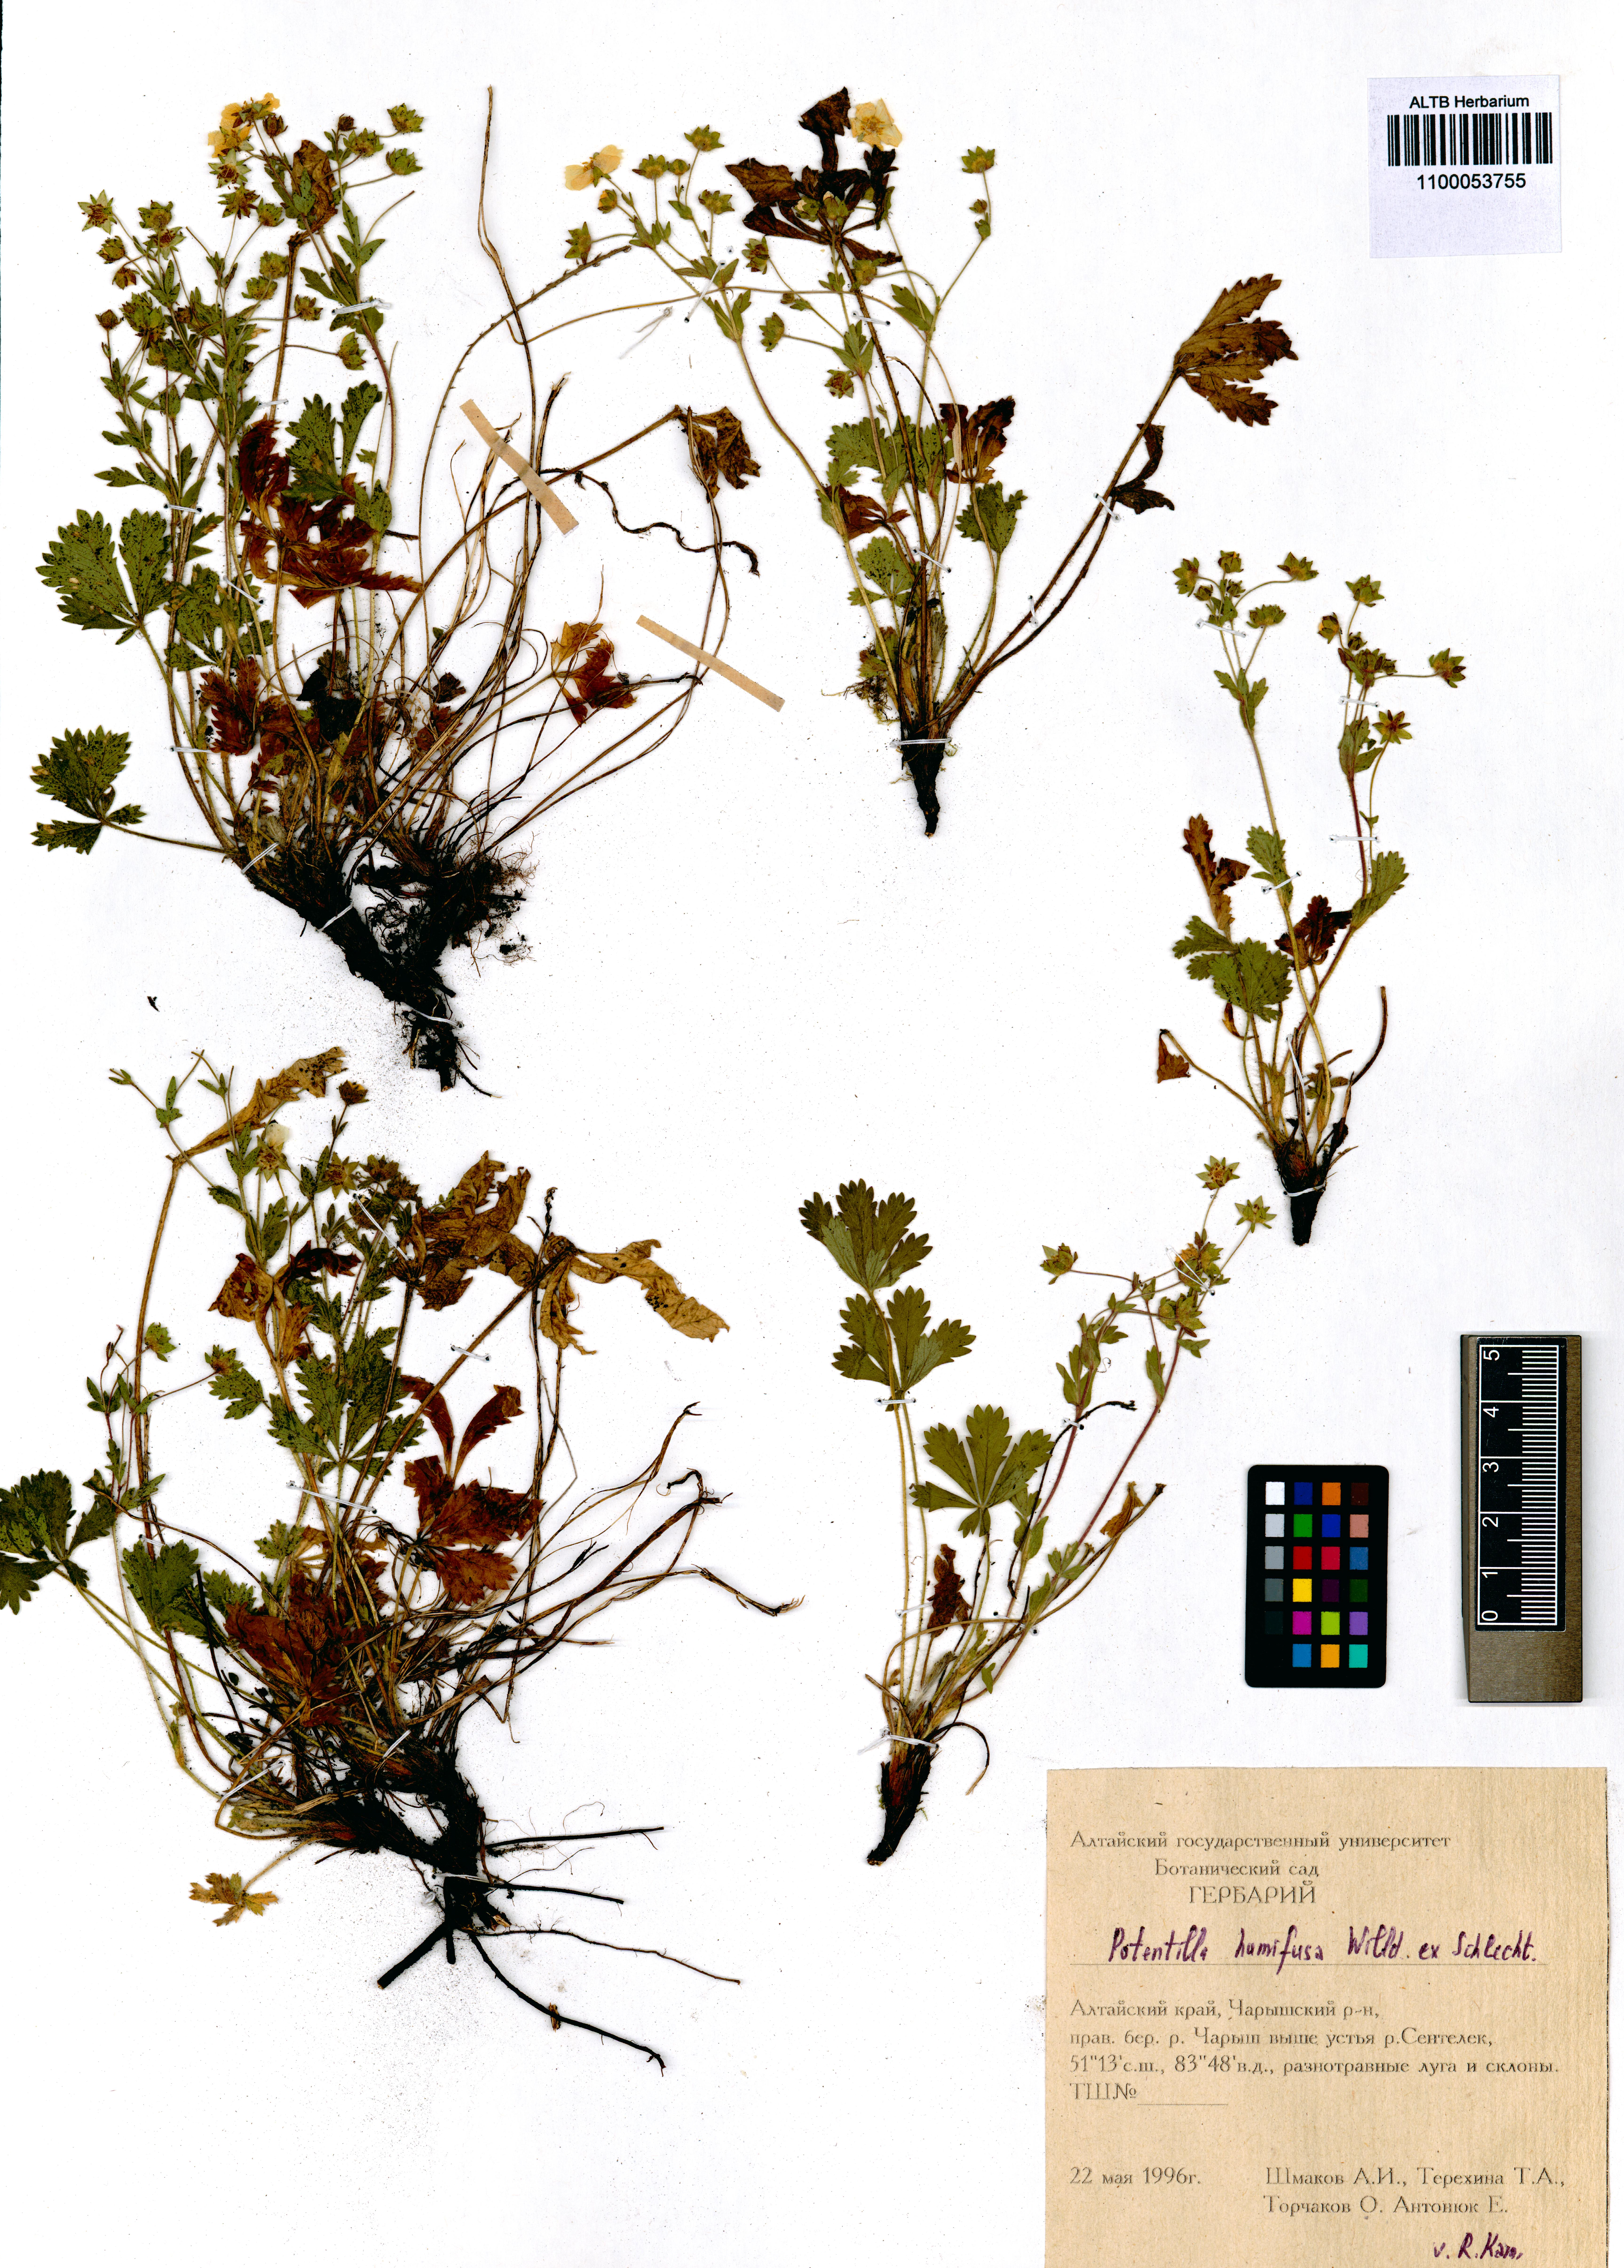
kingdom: Plantae
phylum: Tracheophyta
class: Magnoliopsida
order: Rosales
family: Rosaceae
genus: Potentilla
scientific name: Potentilla humifusa
